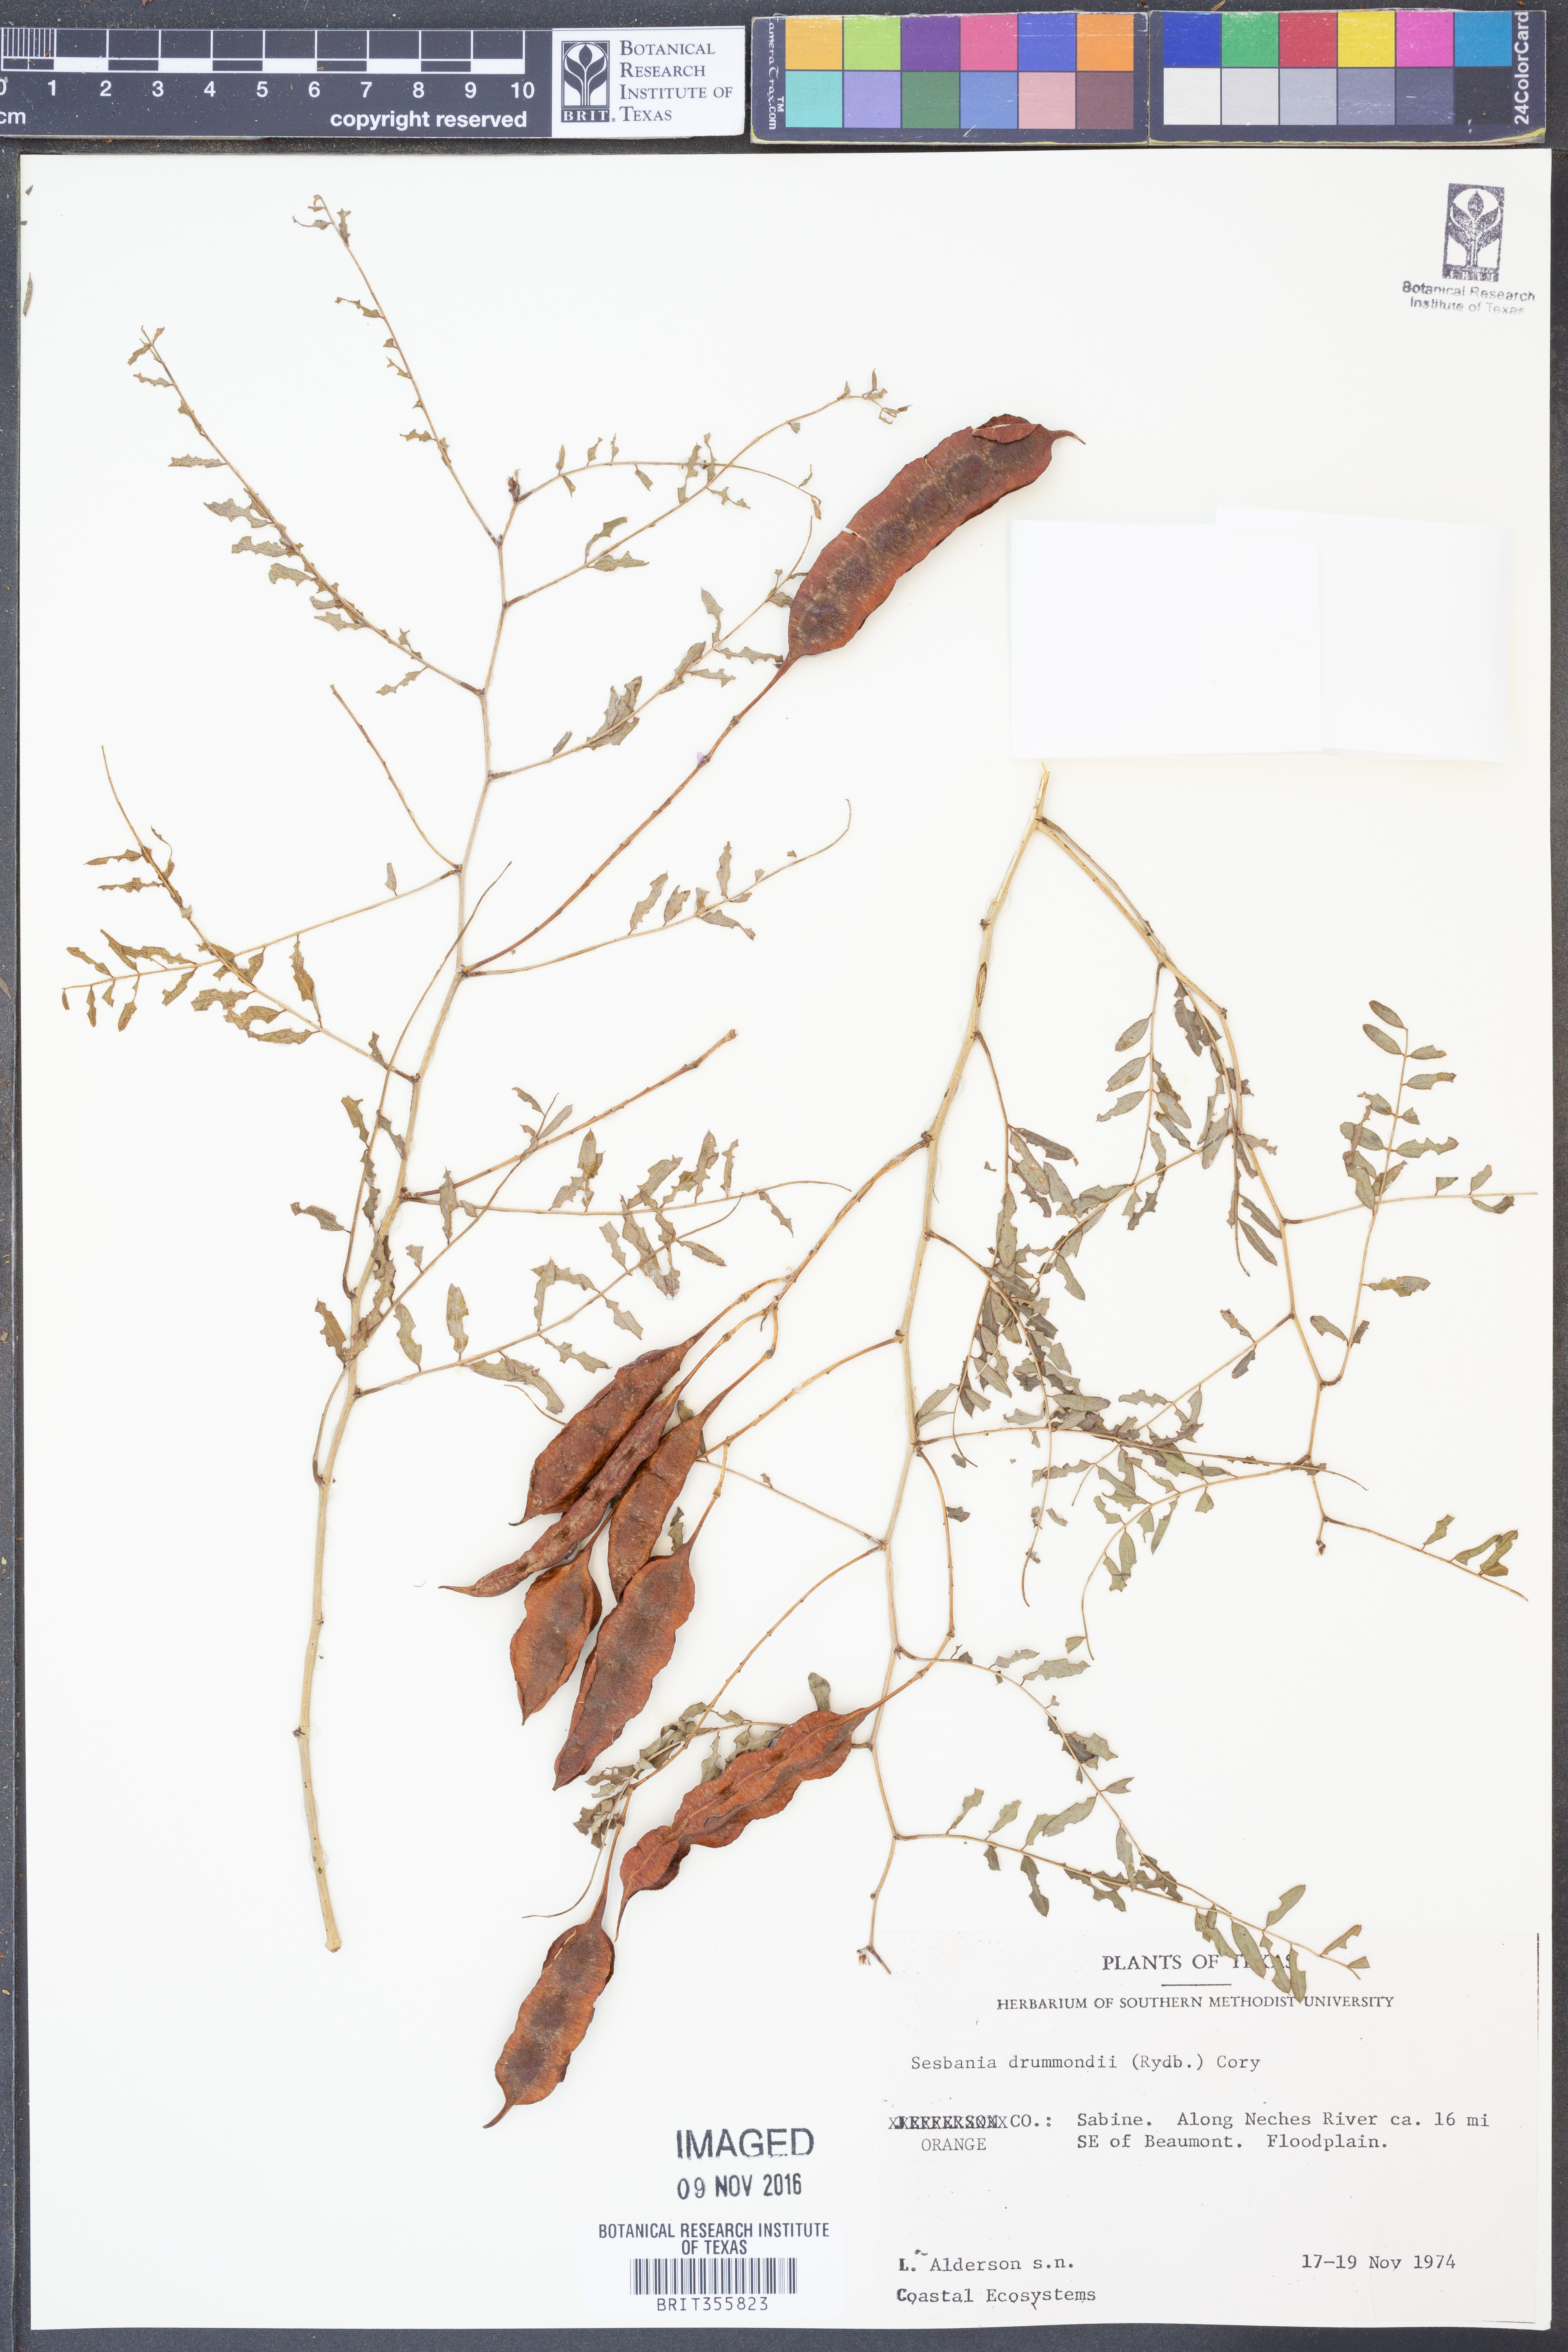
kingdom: Plantae
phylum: Tracheophyta
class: Magnoliopsida
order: Fabales
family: Fabaceae
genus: Sesbania
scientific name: Sesbania drummondii
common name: Poison-bean
